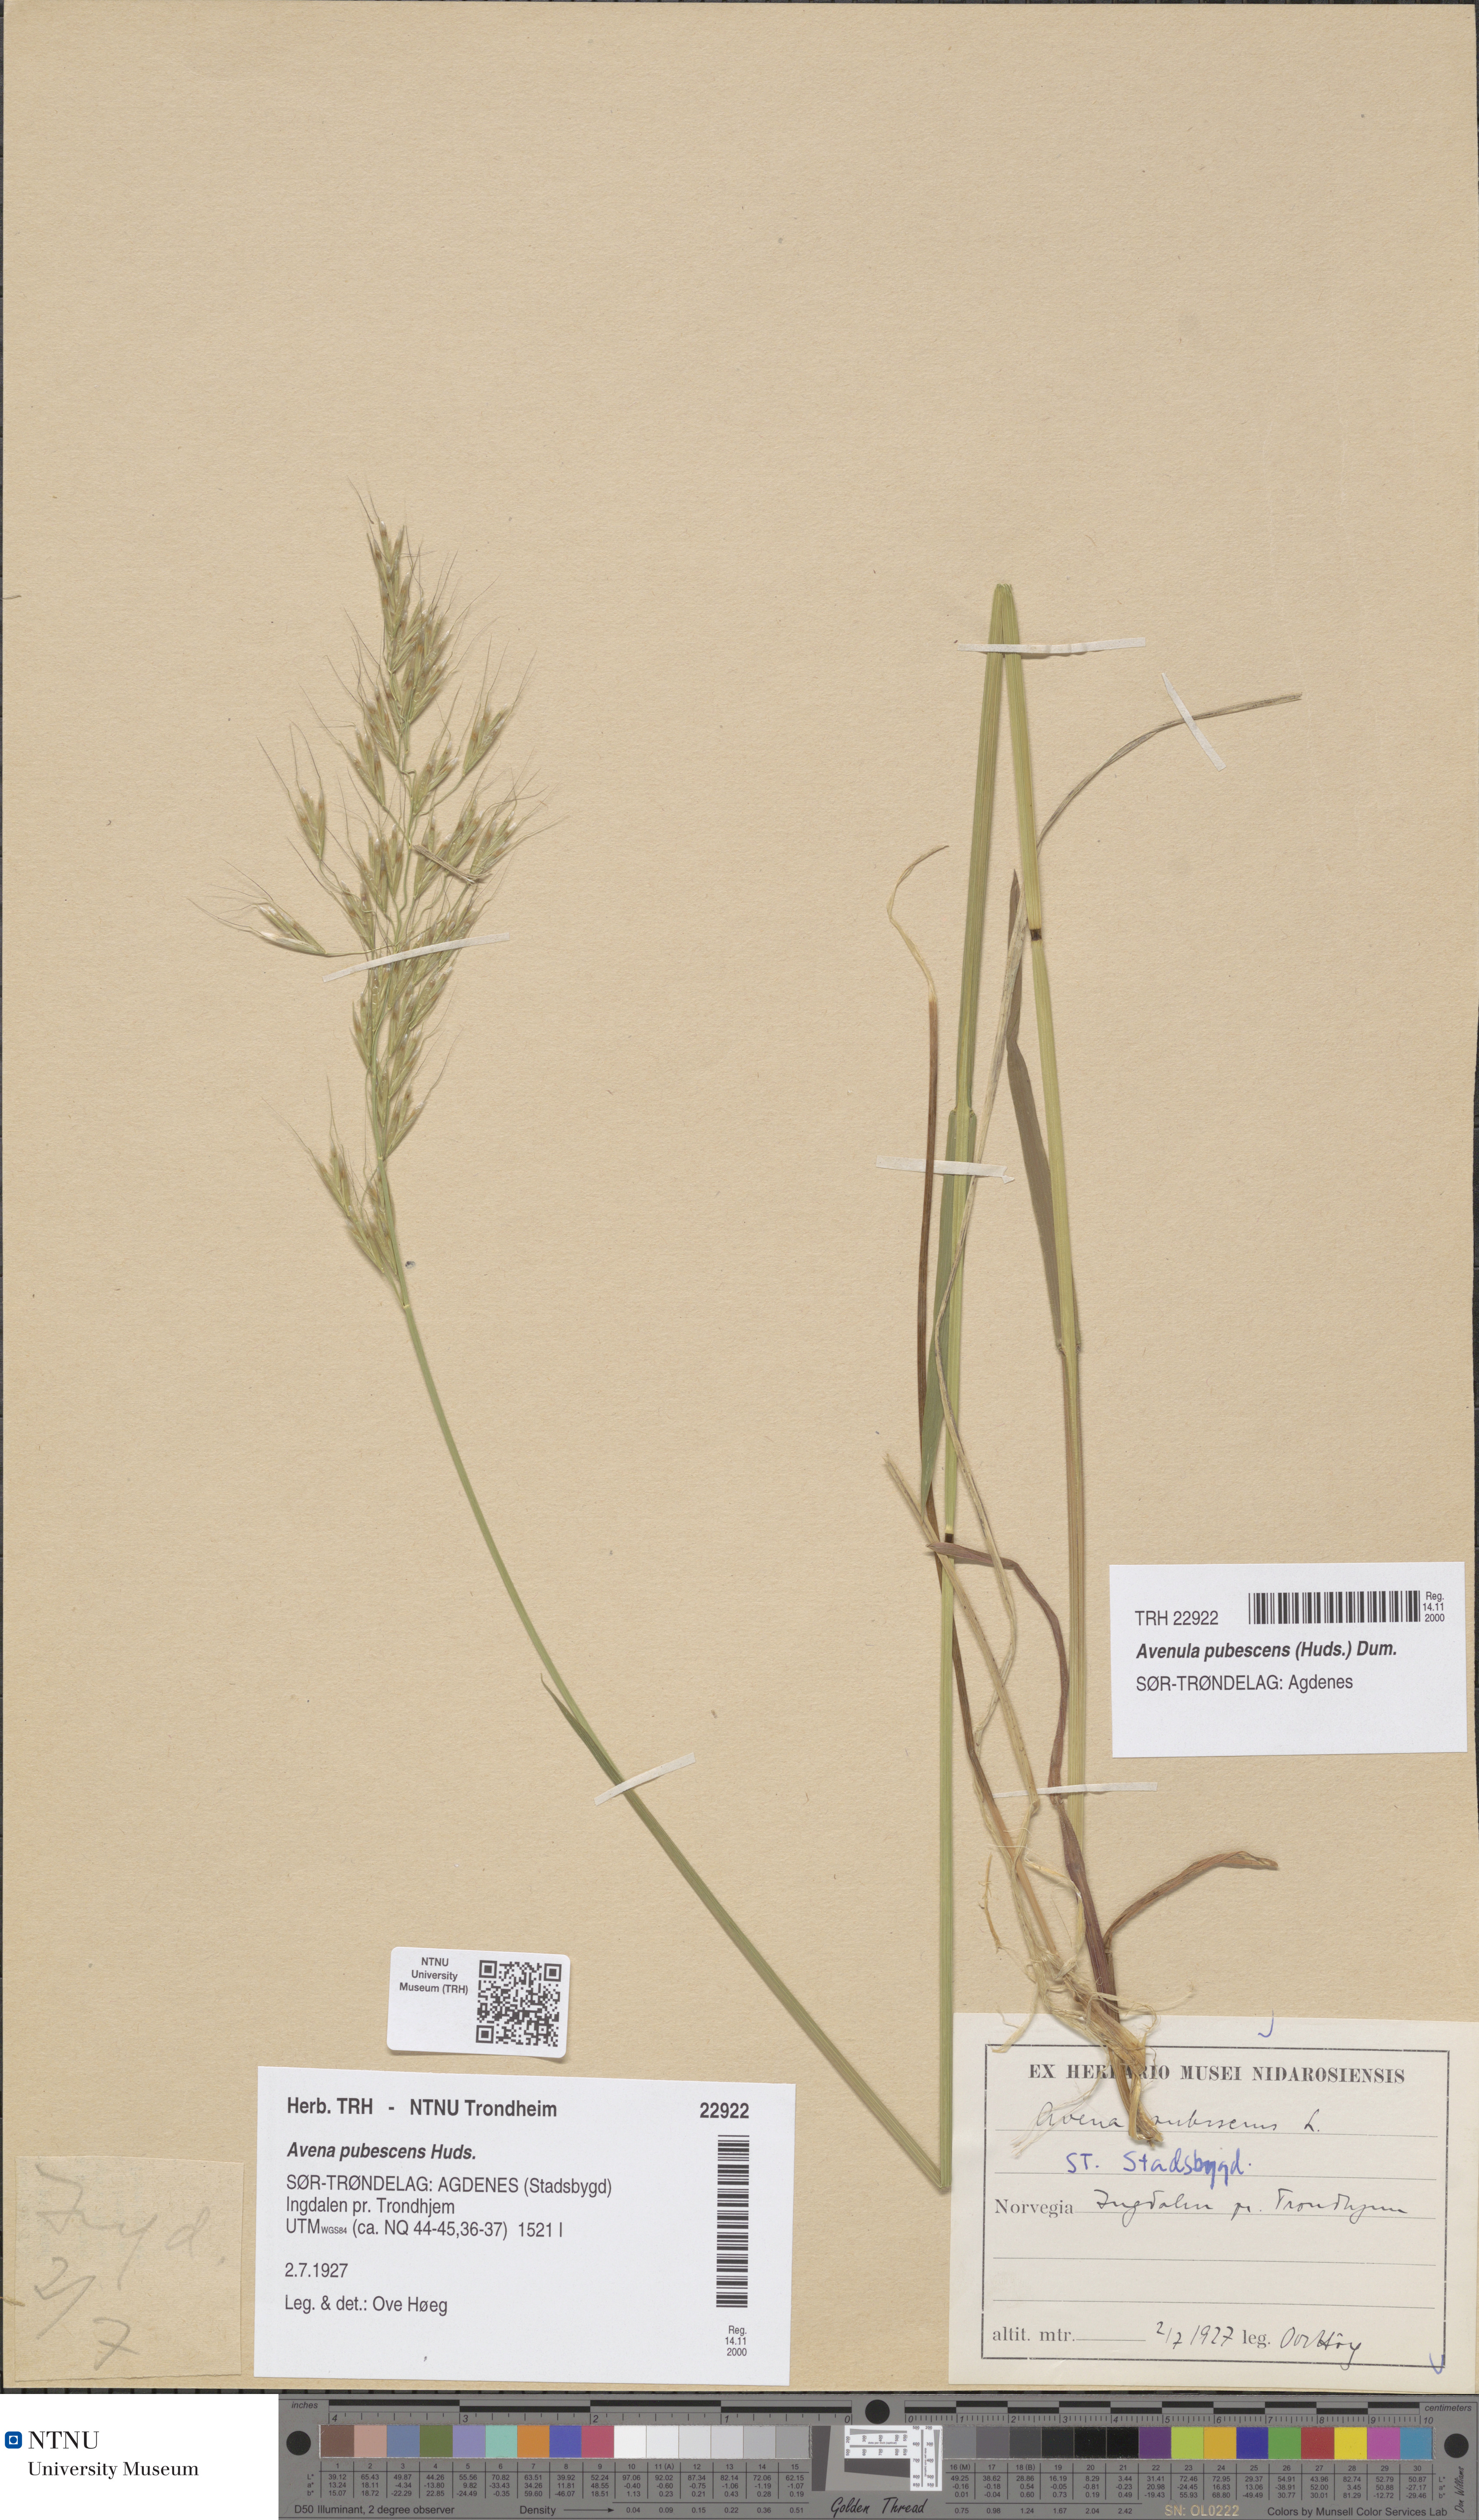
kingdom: Plantae
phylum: Tracheophyta
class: Liliopsida
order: Poales
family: Poaceae
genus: Avenula
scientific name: Avenula pubescens
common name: Downy alpine oatgrass
